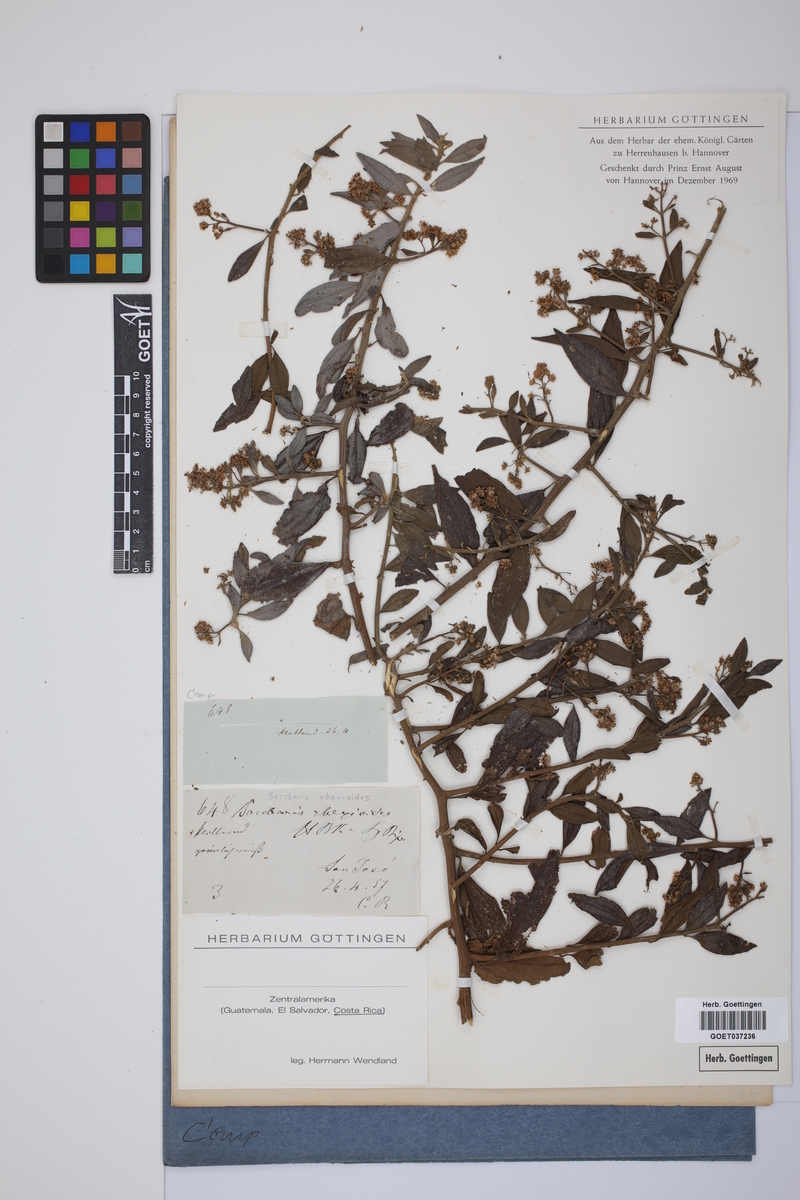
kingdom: Plantae
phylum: Tracheophyta
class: Magnoliopsida
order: Asterales
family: Asteraceae
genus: Baccharis
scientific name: Baccharis trinervis
